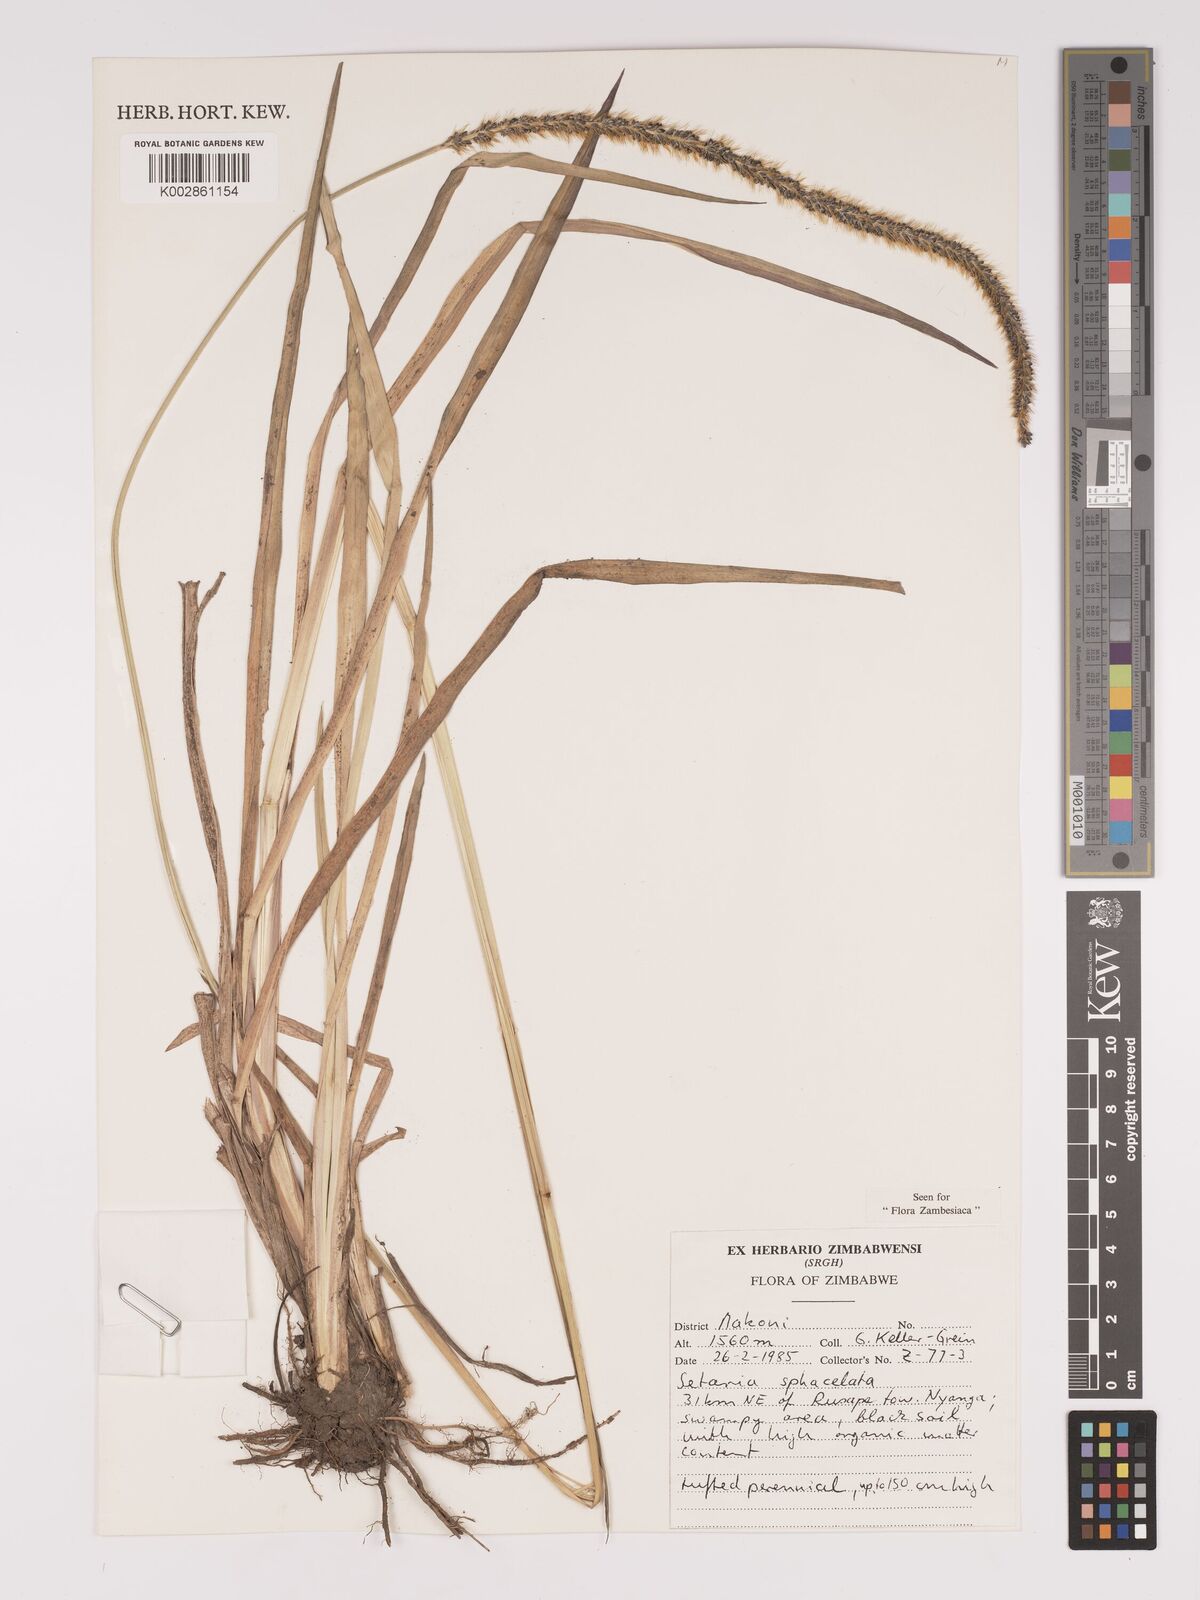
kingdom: Plantae
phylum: Tracheophyta
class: Liliopsida
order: Poales
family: Poaceae
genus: Setaria
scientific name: Setaria sphacelata
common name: African bristlegrass
